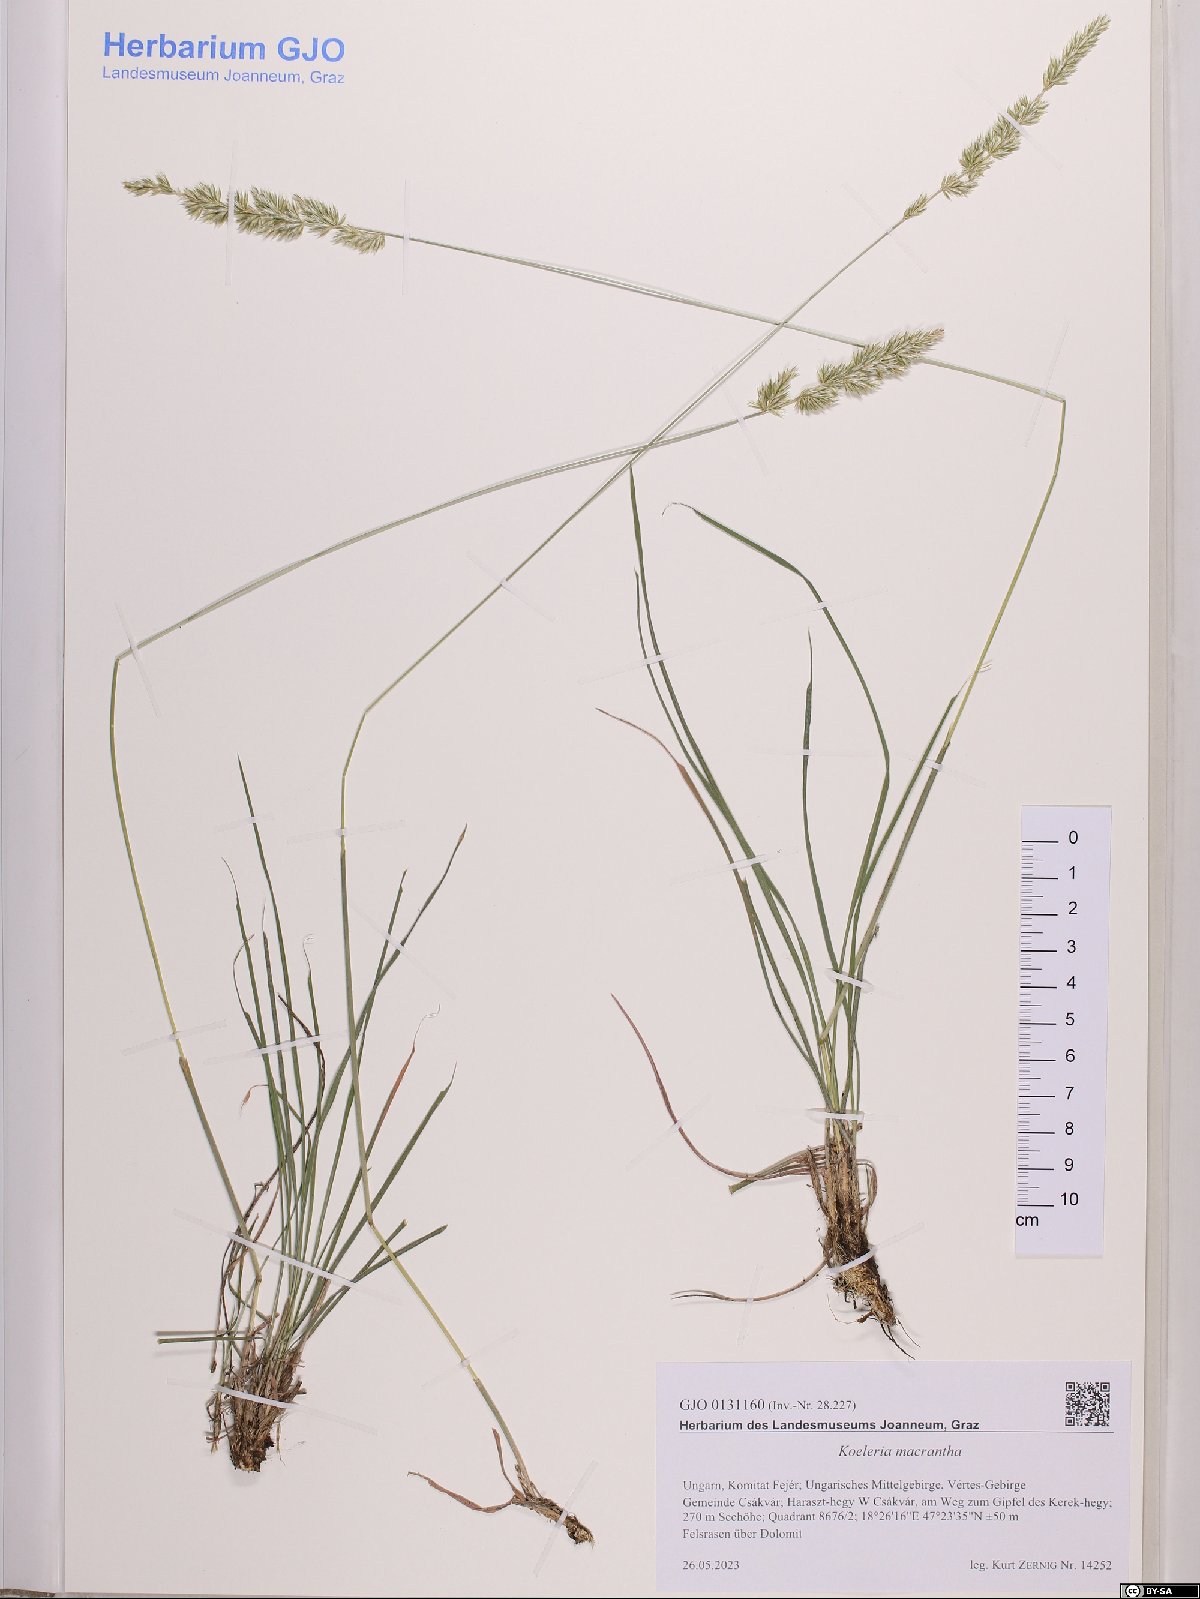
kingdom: Plantae
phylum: Tracheophyta
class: Liliopsida
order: Poales
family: Poaceae
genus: Koeleria
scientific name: Koeleria macrantha
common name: Crested hair-grass
